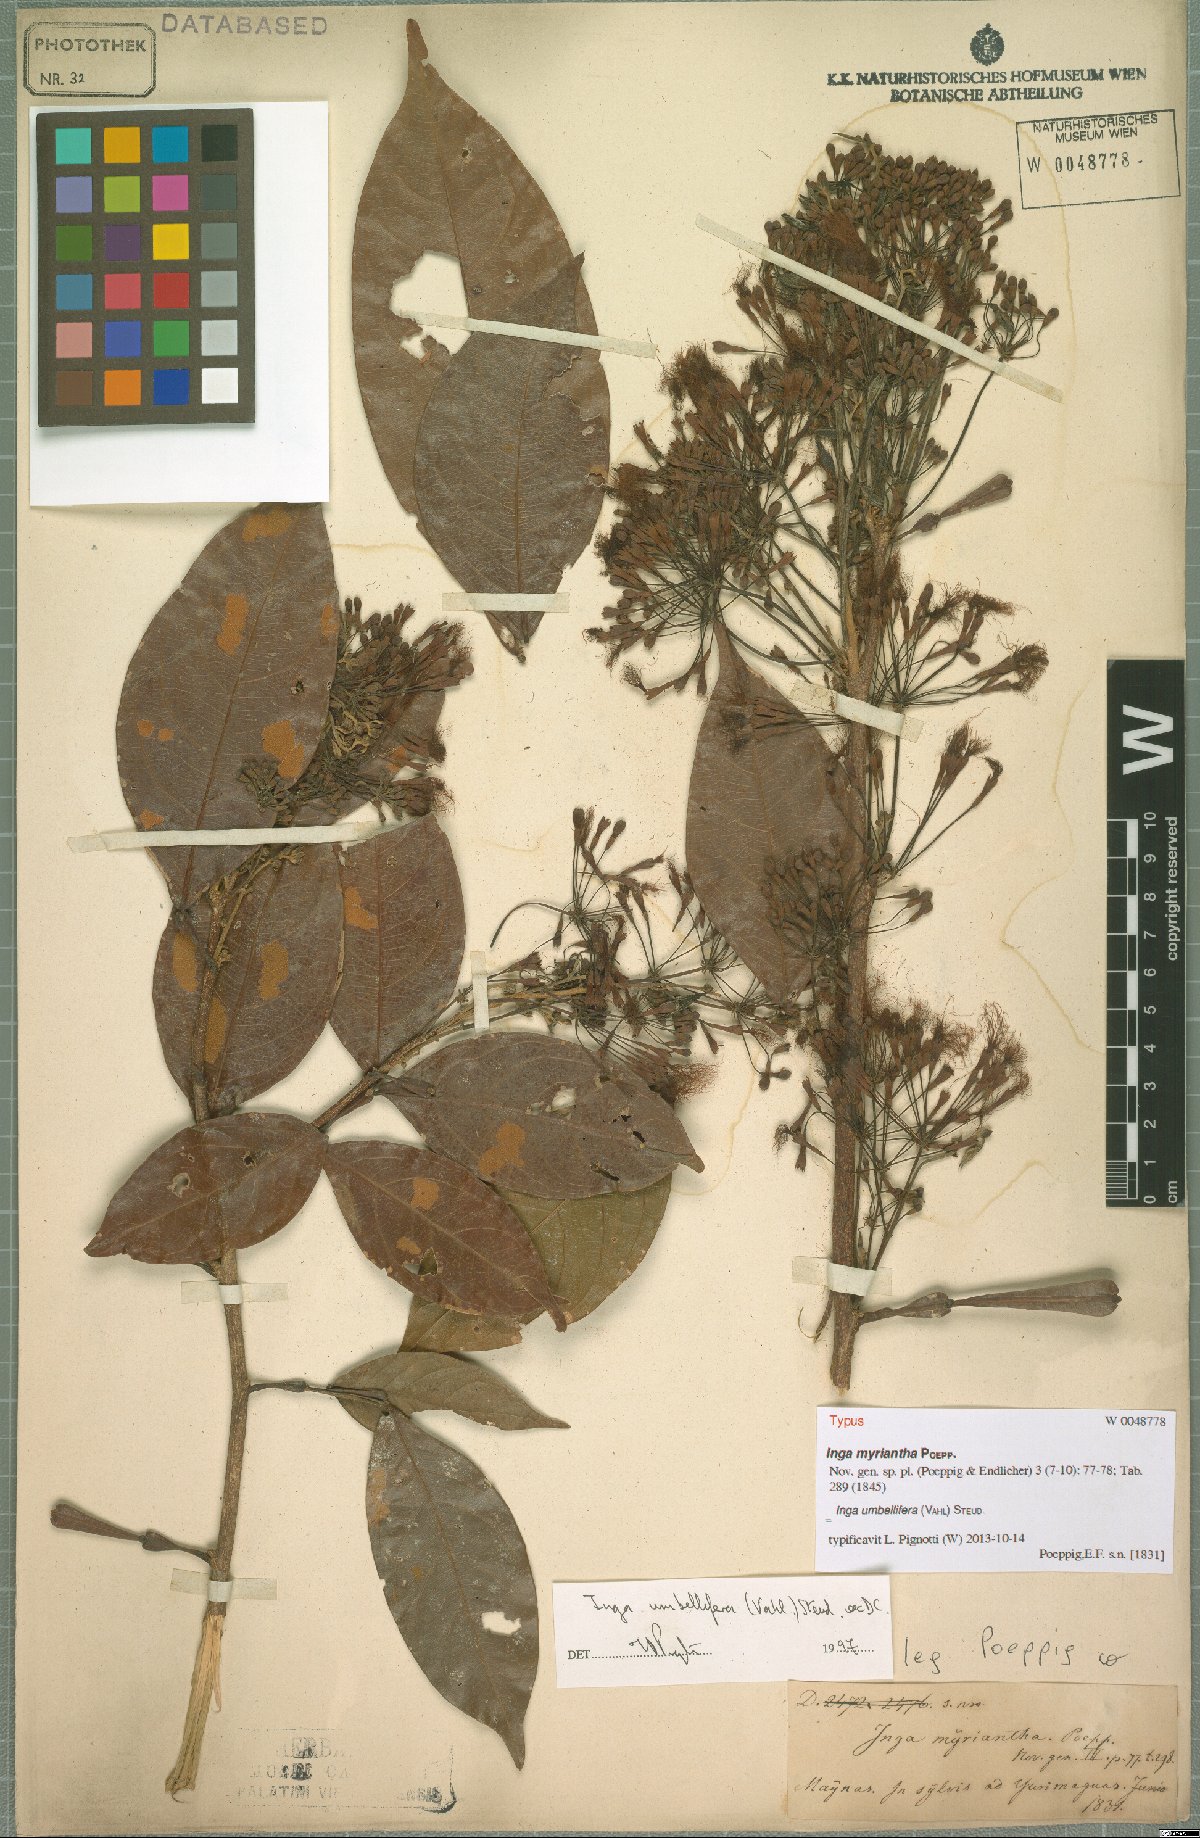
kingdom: Plantae
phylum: Tracheophyta
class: Magnoliopsida
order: Fabales
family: Fabaceae
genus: Inga
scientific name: Inga umbellifera
